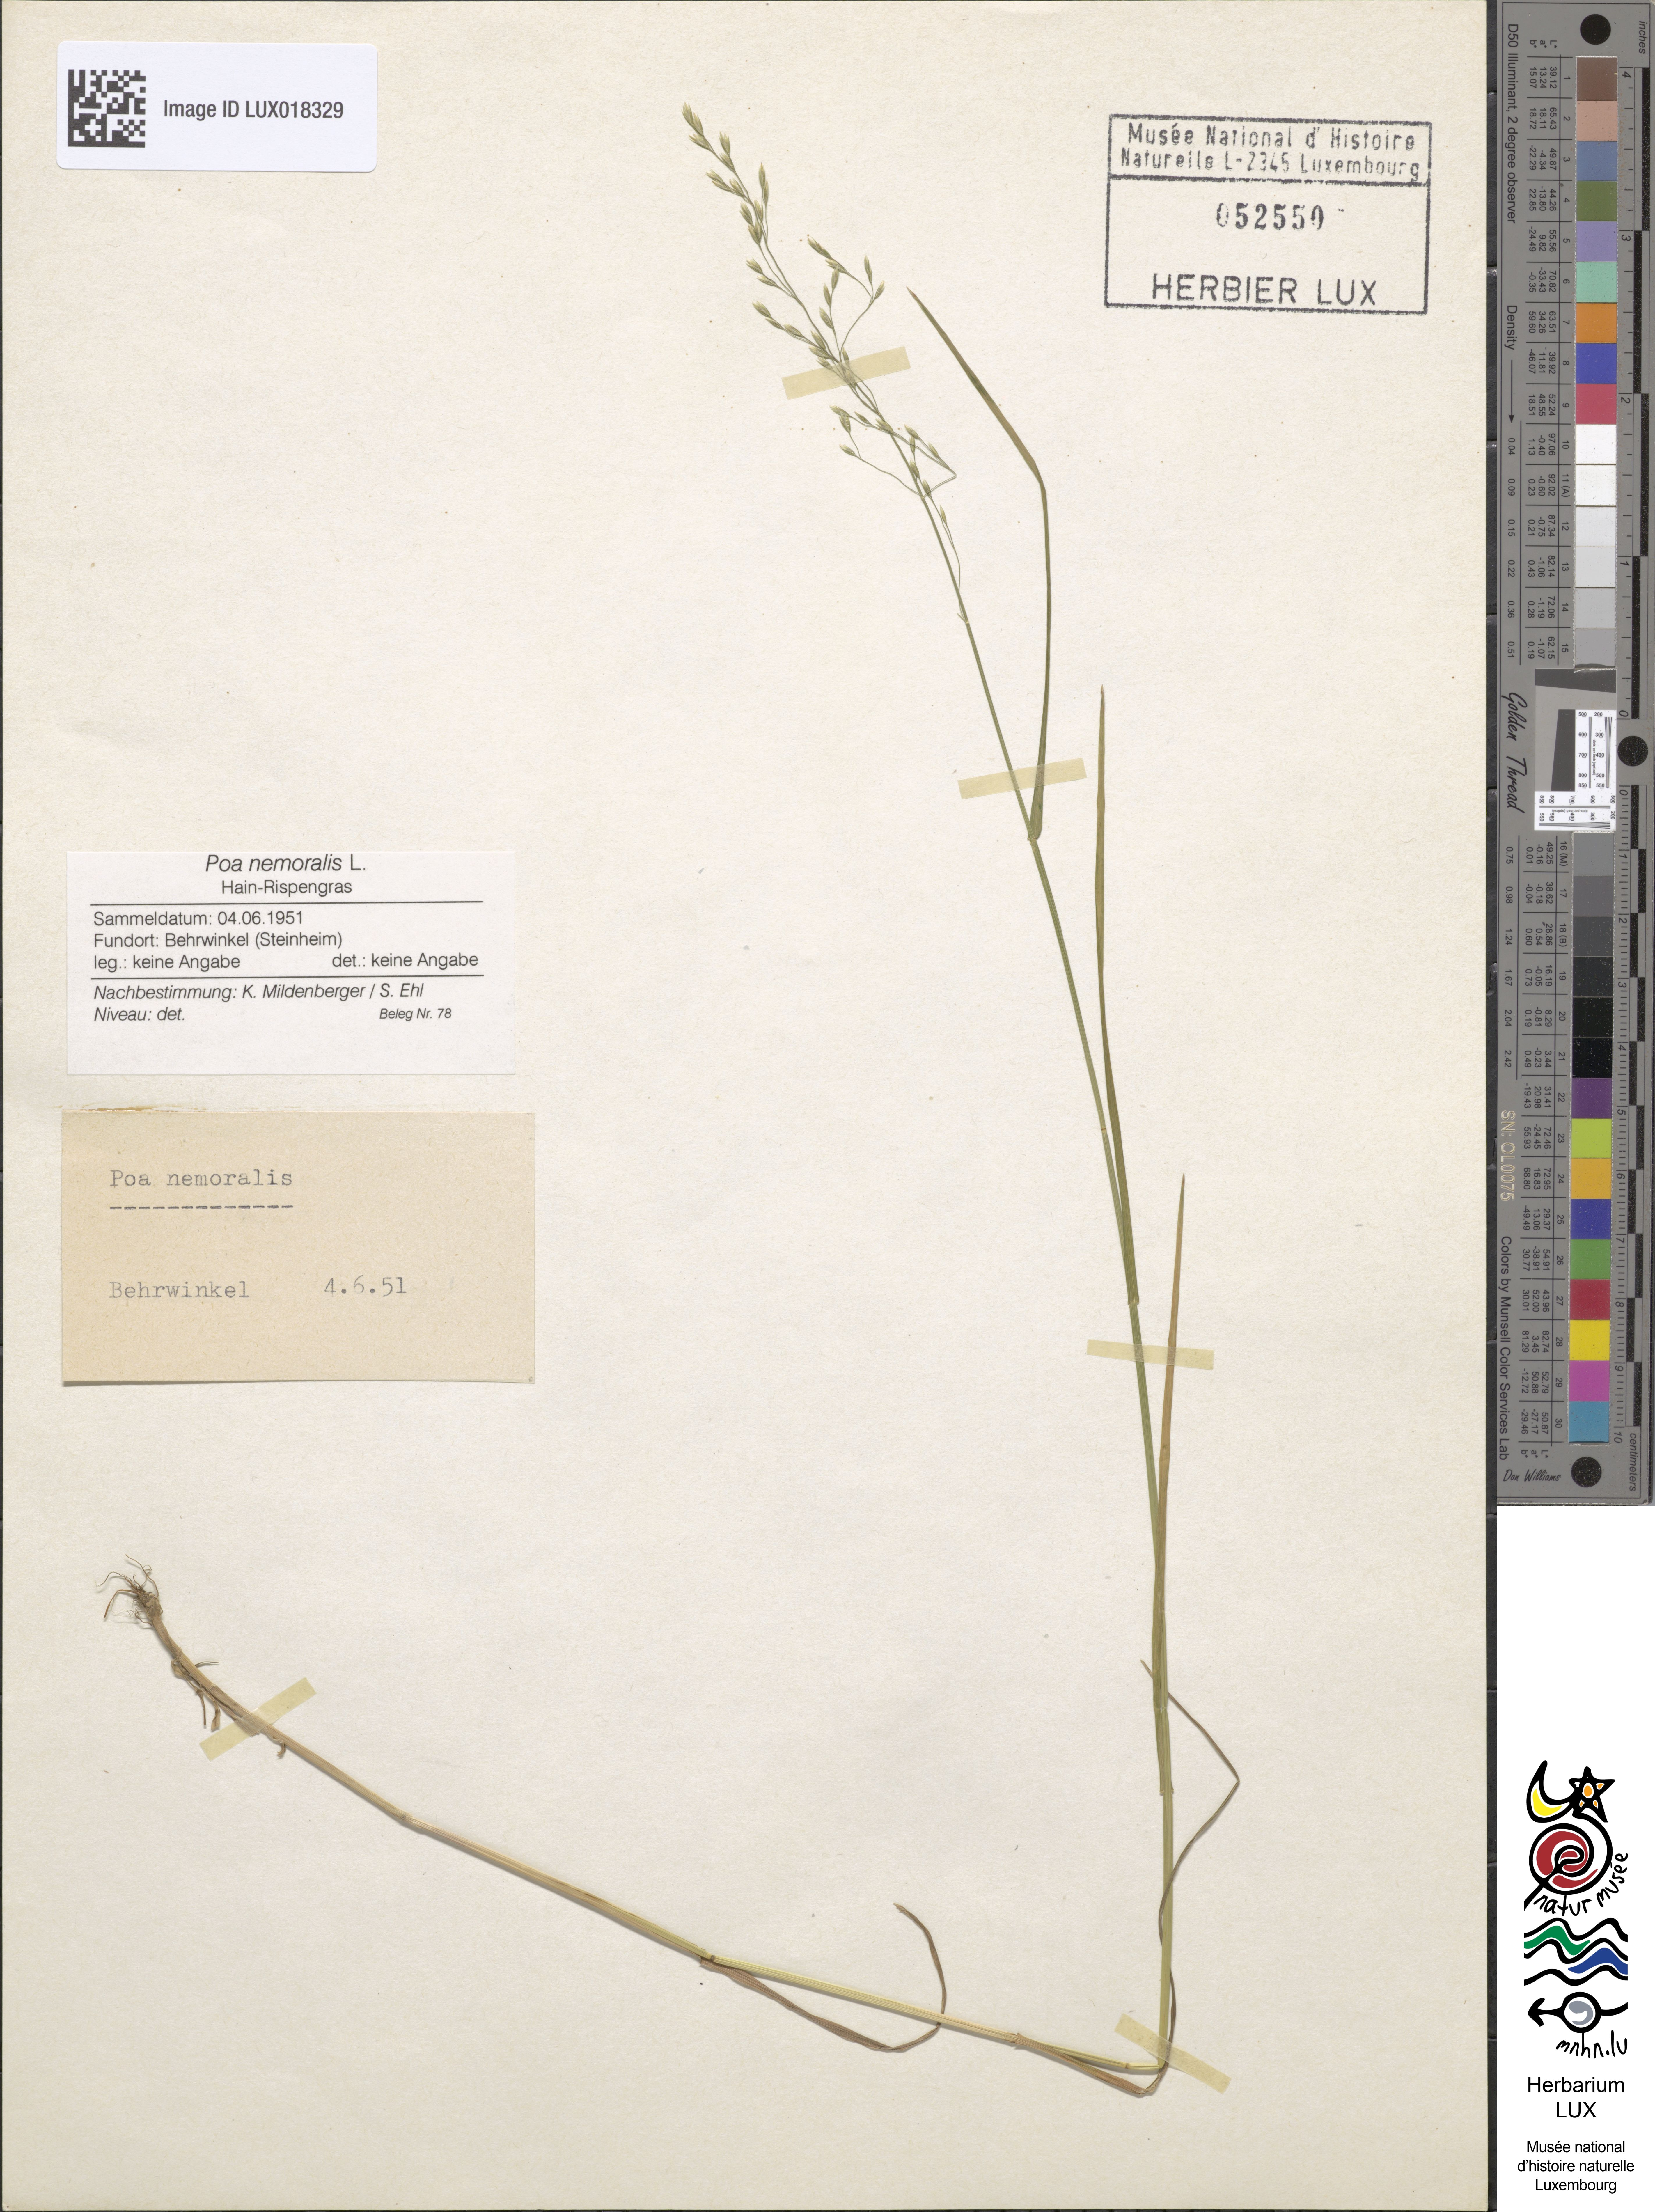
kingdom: Plantae
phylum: Tracheophyta
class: Liliopsida
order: Poales
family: Poaceae
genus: Poa
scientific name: Poa nemoralis
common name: Wood bluegrass
